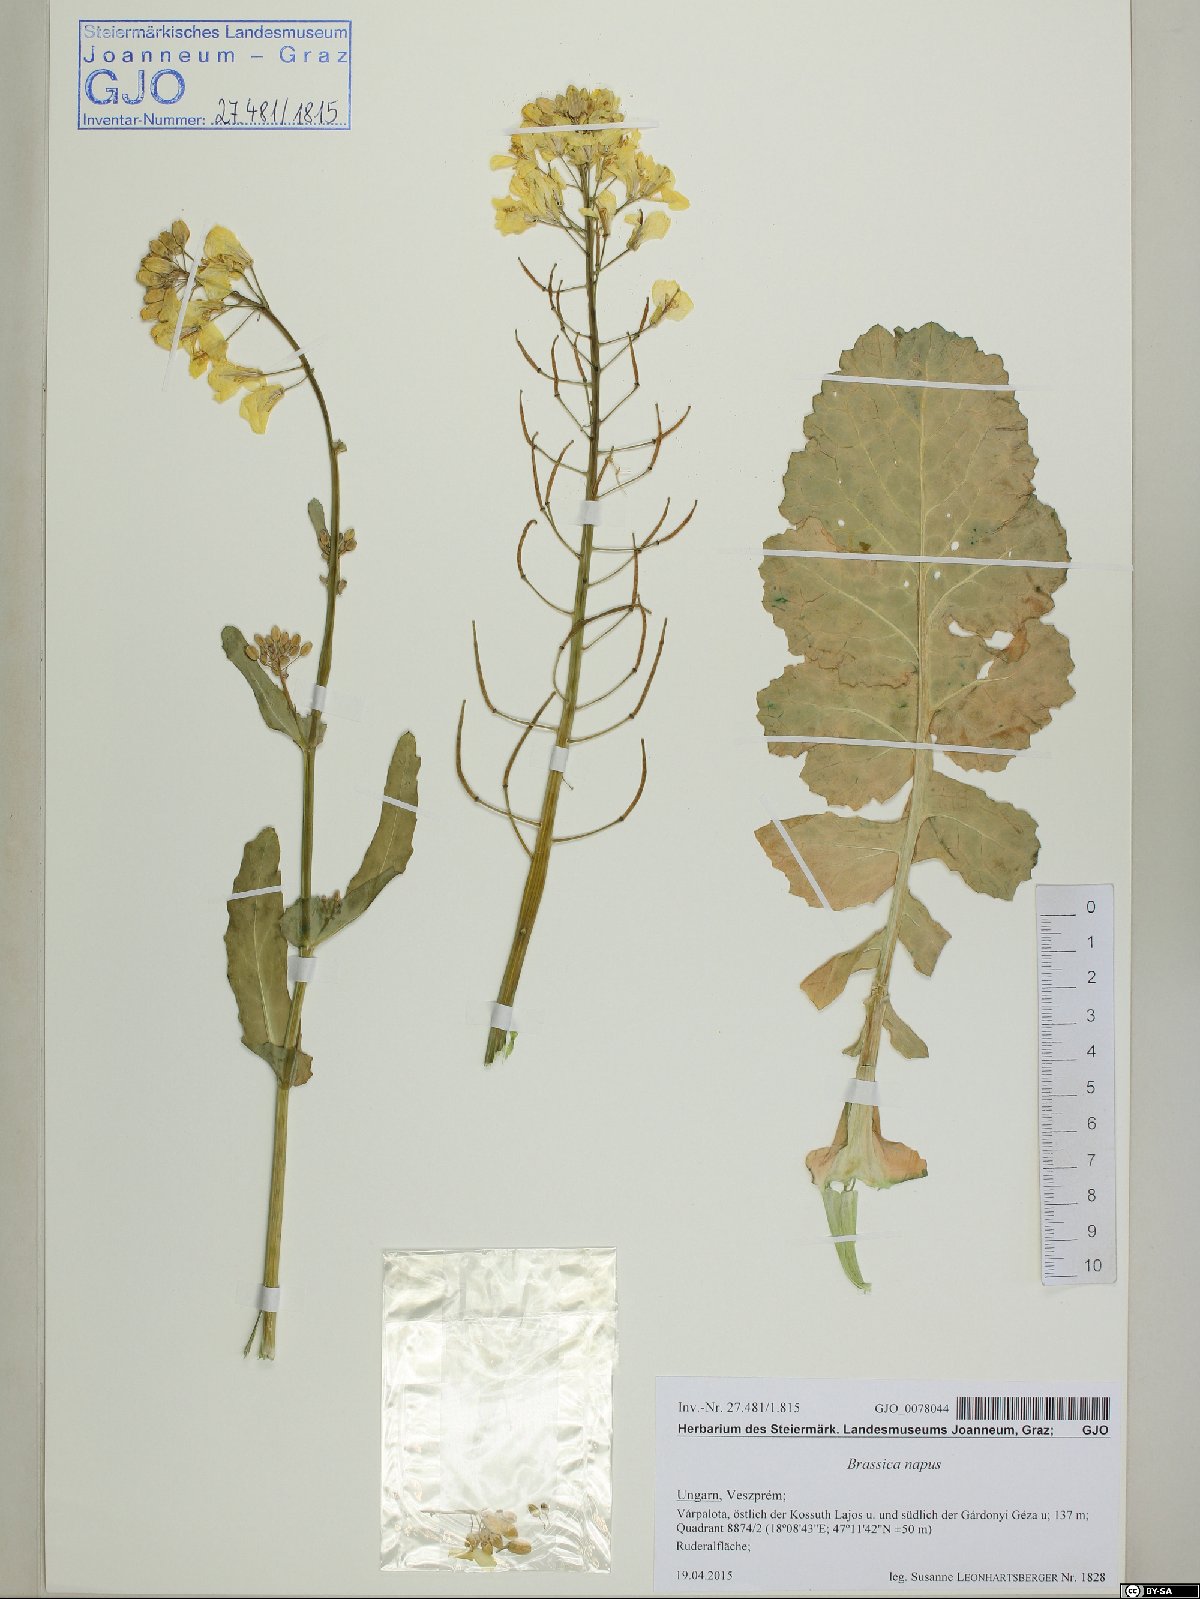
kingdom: Plantae
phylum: Tracheophyta
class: Magnoliopsida
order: Brassicales
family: Brassicaceae
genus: Brassica
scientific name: Brassica napus
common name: Rape
